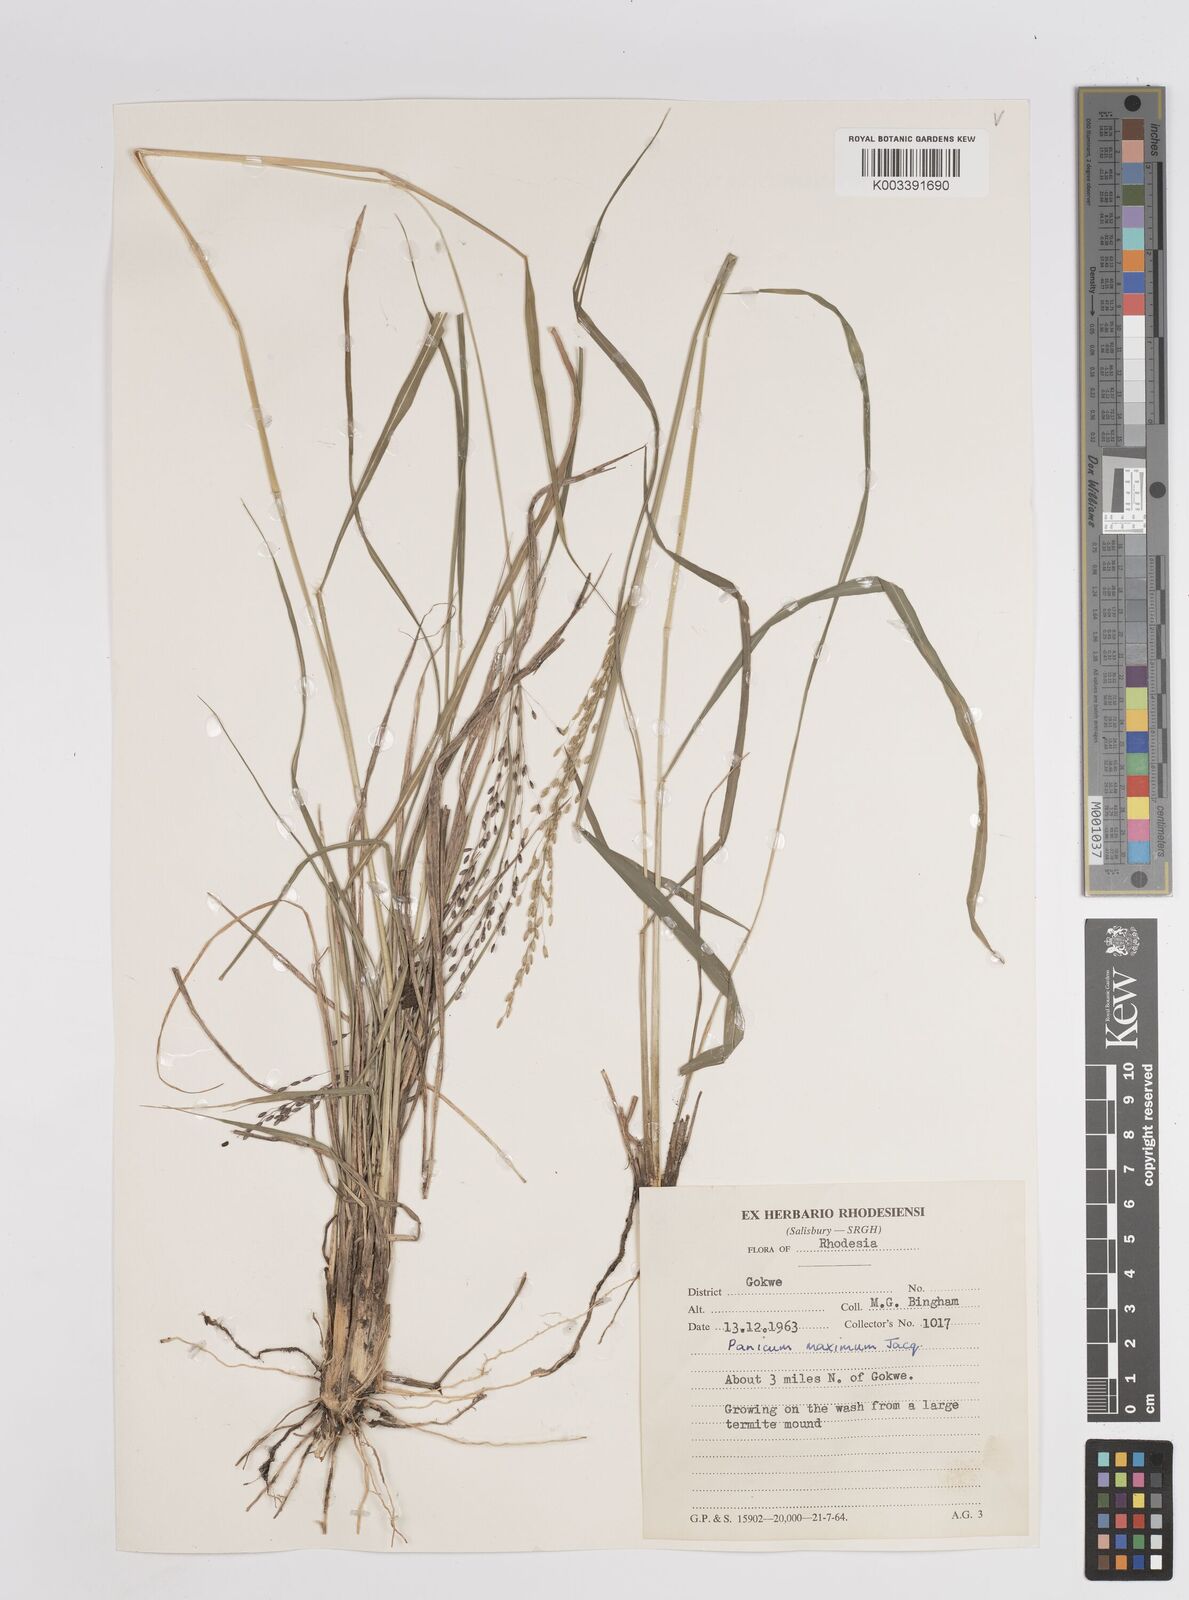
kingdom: Plantae
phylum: Tracheophyta
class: Liliopsida
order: Poales
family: Poaceae
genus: Megathyrsus
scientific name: Megathyrsus maximus
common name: Guineagrass
